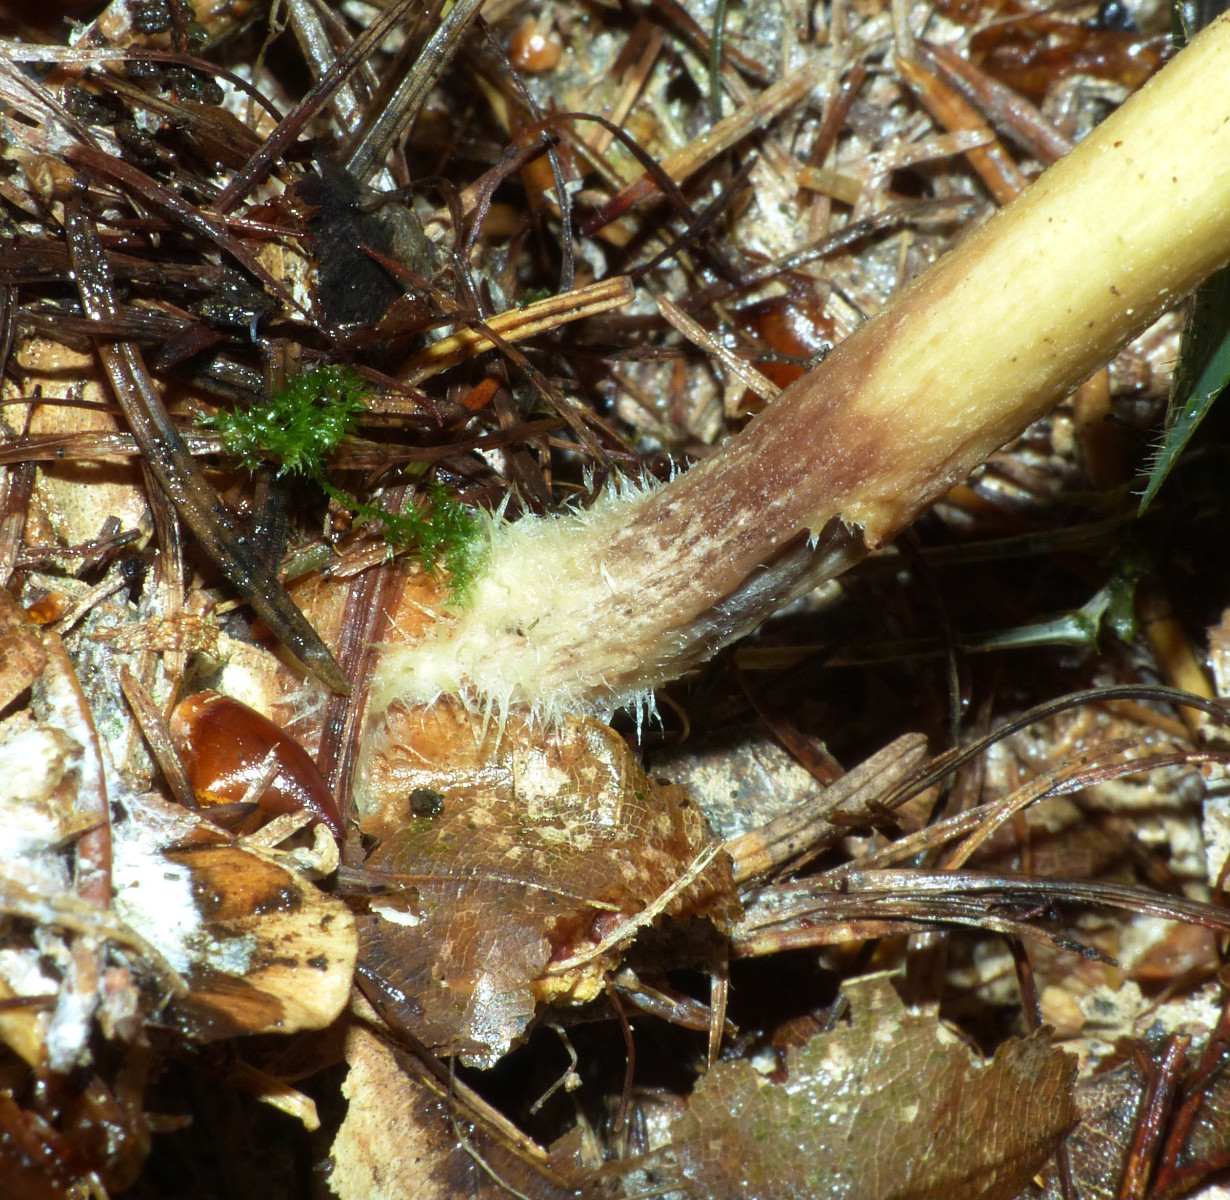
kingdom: Fungi
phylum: Basidiomycota
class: Agaricomycetes
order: Agaricales
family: Omphalotaceae
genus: Collybiopsis
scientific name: Collybiopsis peronata
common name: bestøvlet fladhat
